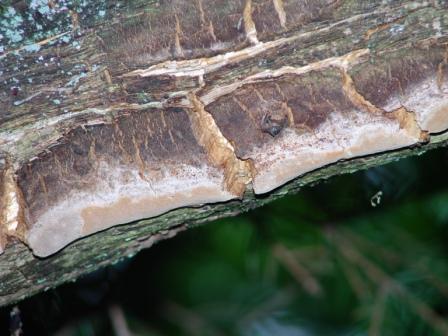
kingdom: Fungi
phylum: Basidiomycota
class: Agaricomycetes
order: Hymenochaetales
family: Hymenochaetaceae
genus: Fuscoporia
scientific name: Fuscoporia ferrea
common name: skorpe-ildporesvamp
